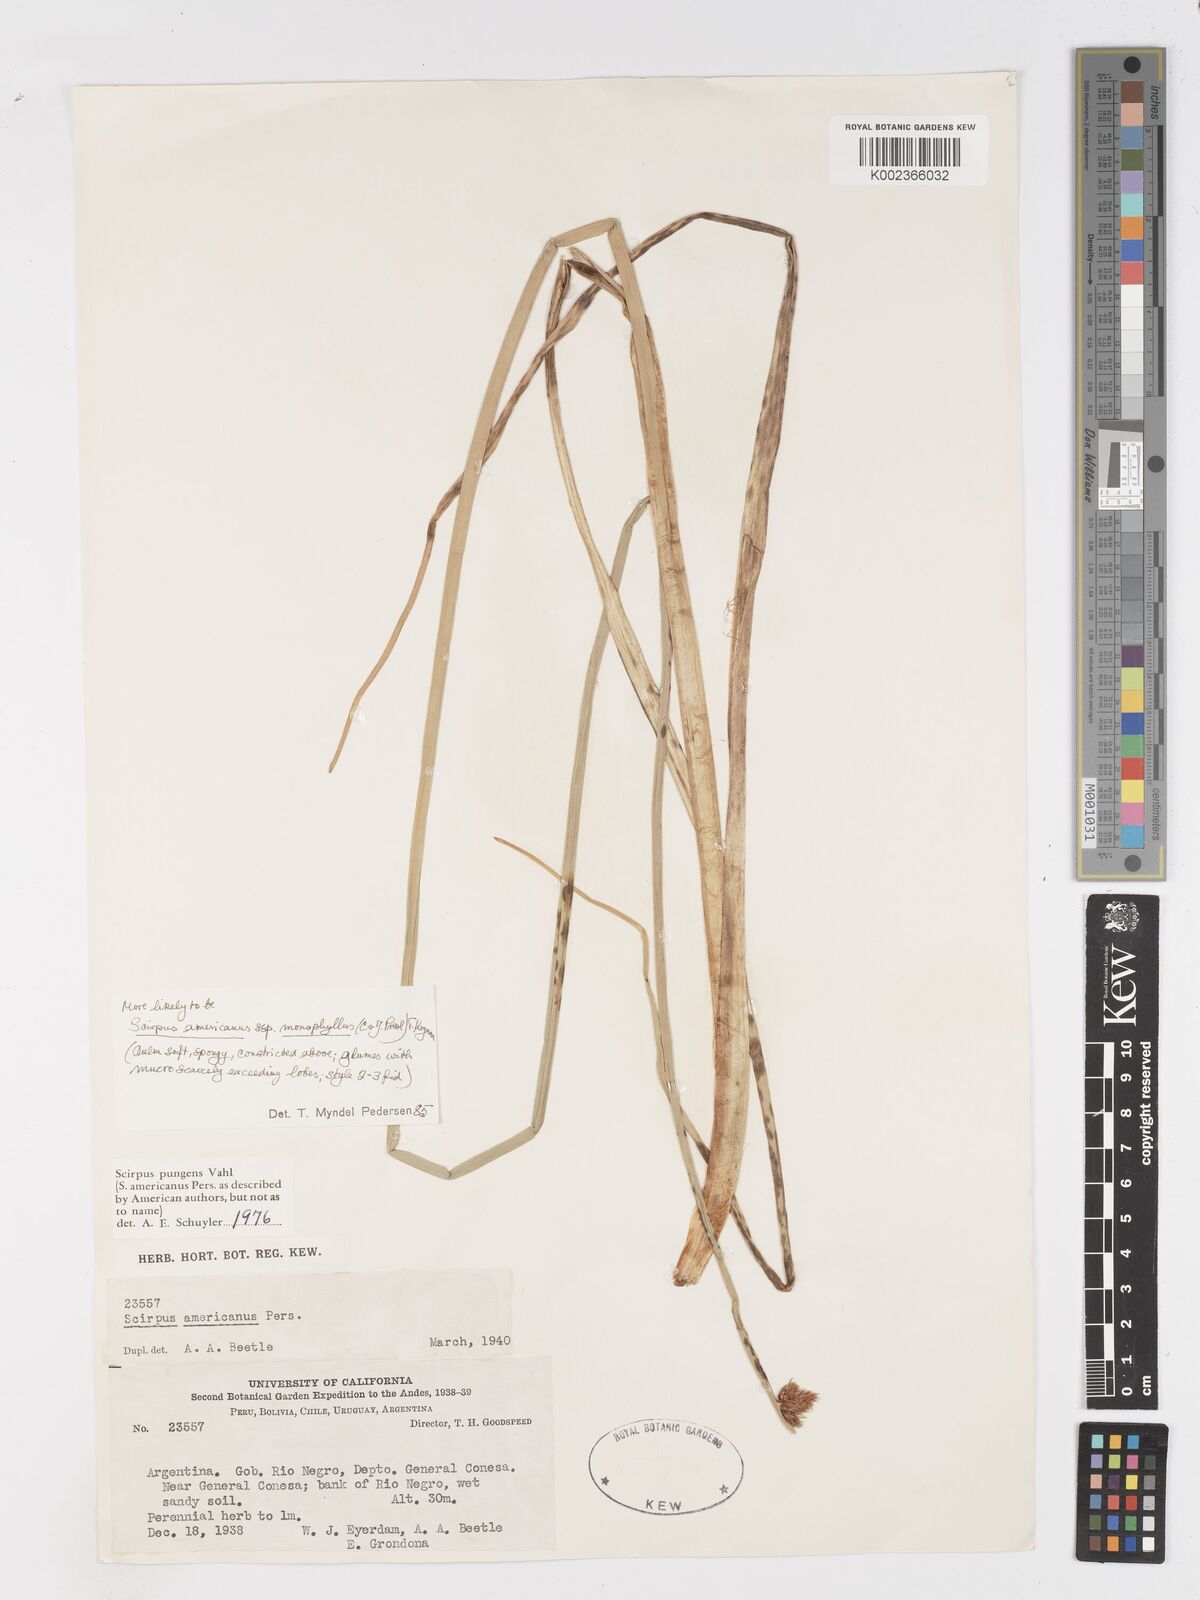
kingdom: Plantae
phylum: Tracheophyta
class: Liliopsida
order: Poales
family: Cyperaceae
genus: Schoenoplectus
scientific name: Schoenoplectus americanus
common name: American three-square bulrush
